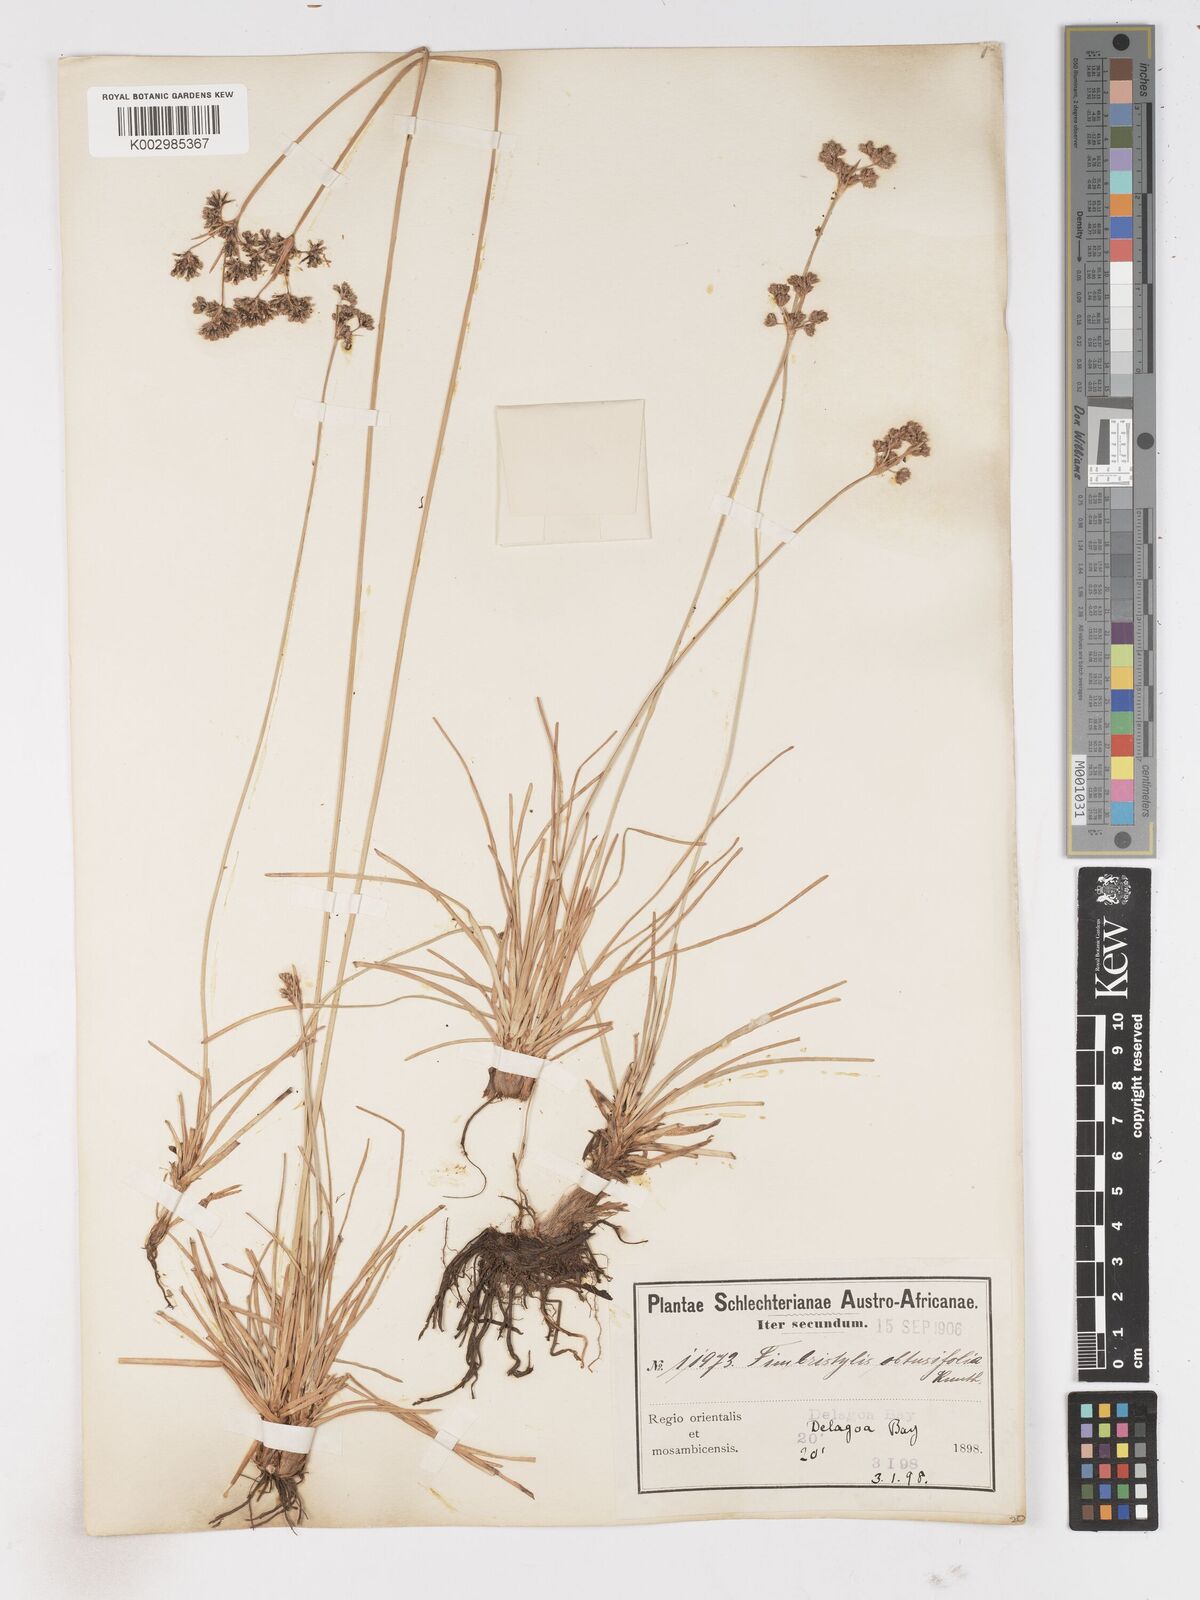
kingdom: Plantae
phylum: Tracheophyta
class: Liliopsida
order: Poales
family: Cyperaceae
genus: Fimbristylis
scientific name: Fimbristylis cymosa
